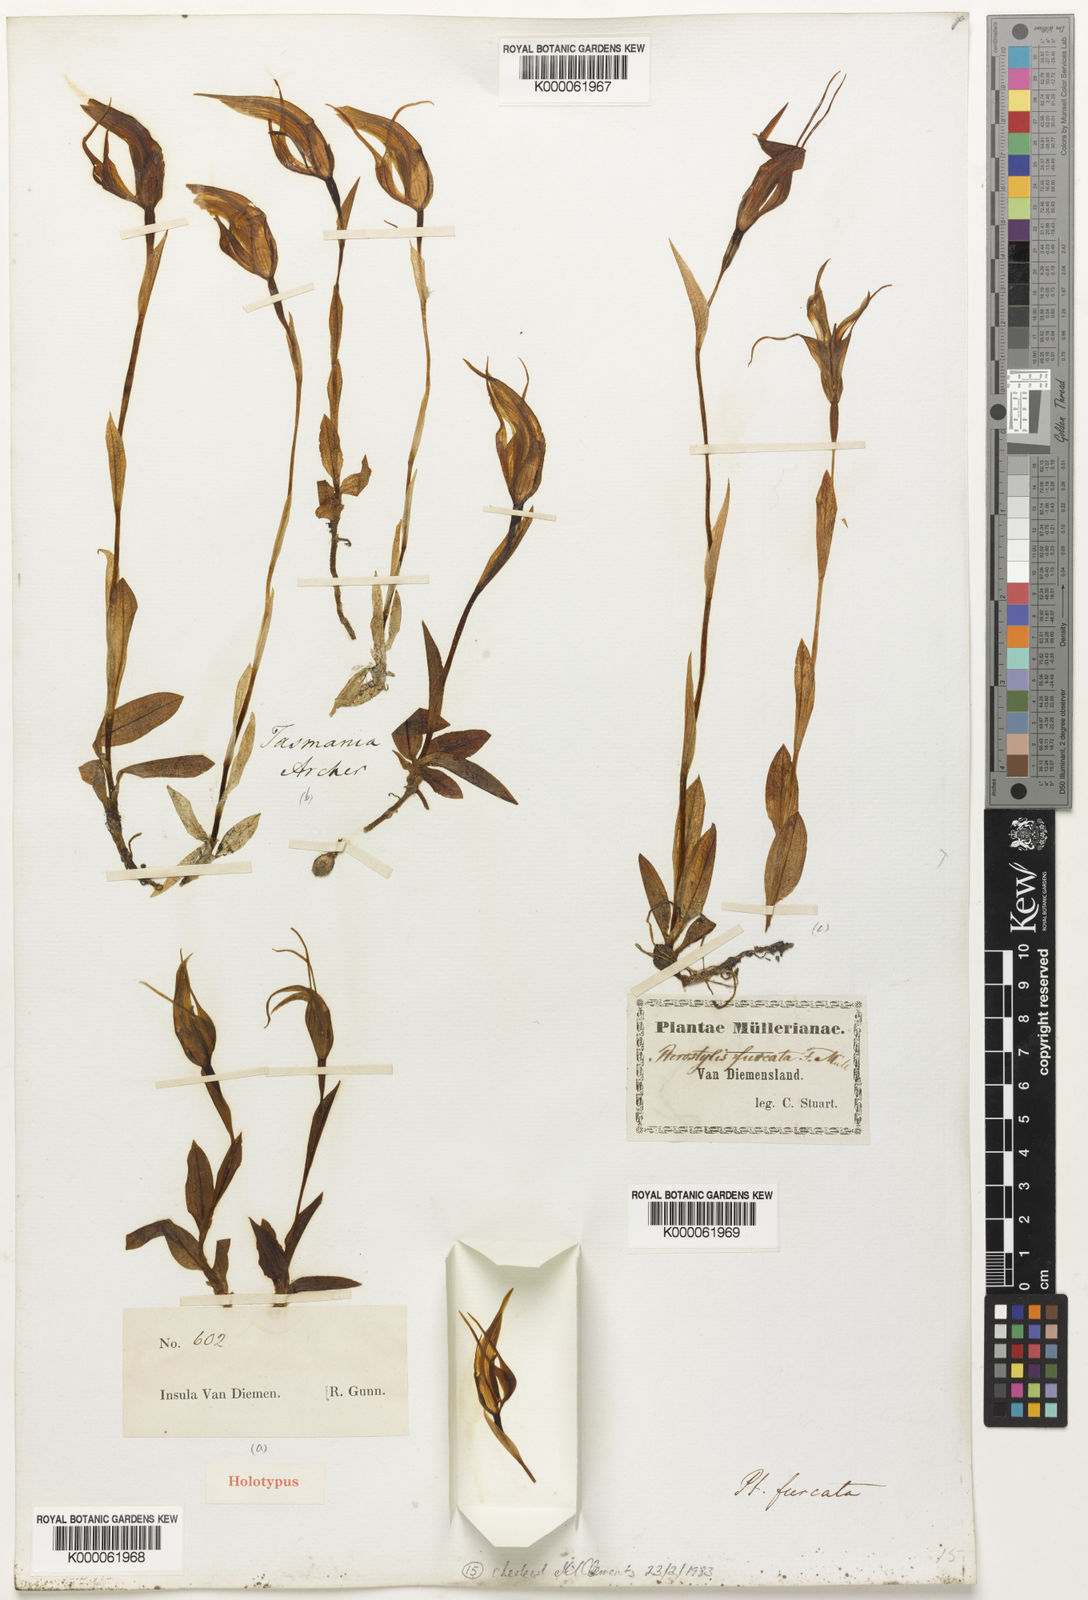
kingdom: Plantae
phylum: Tracheophyta
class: Liliopsida
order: Asparagales
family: Orchidaceae
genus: Pterostylis
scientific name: Pterostylis furcata
